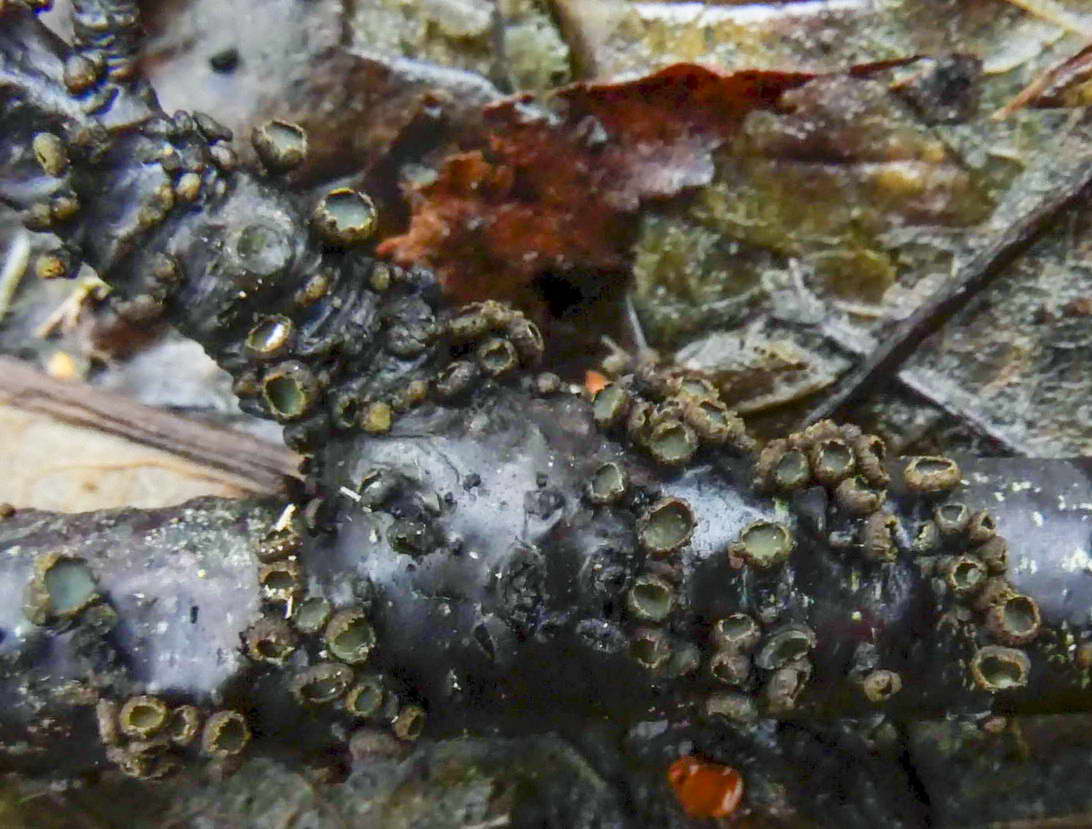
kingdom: Fungi
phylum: Ascomycota
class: Leotiomycetes
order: Helotiales
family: Godroniaceae
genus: Godronia
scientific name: Godronia ribis
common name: ribs-urneskive
